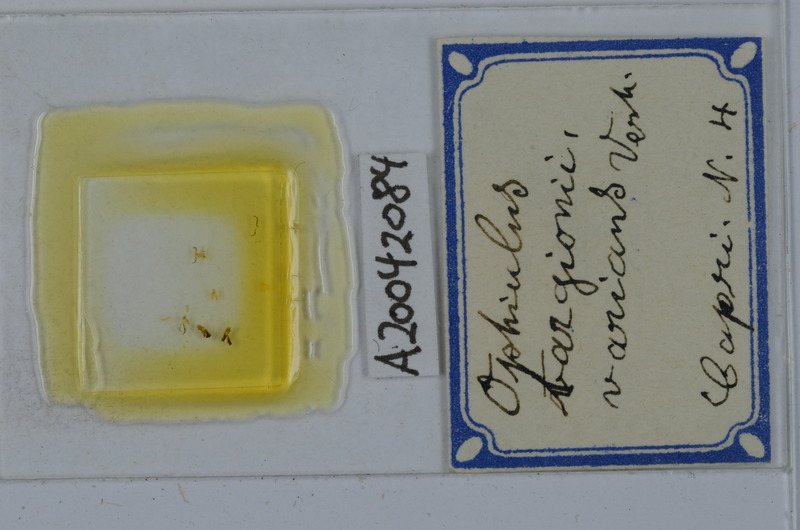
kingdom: Animalia
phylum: Arthropoda
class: Diplopoda
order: Julida
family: Julidae
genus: Ophyiulus
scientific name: Ophyiulus targionii
